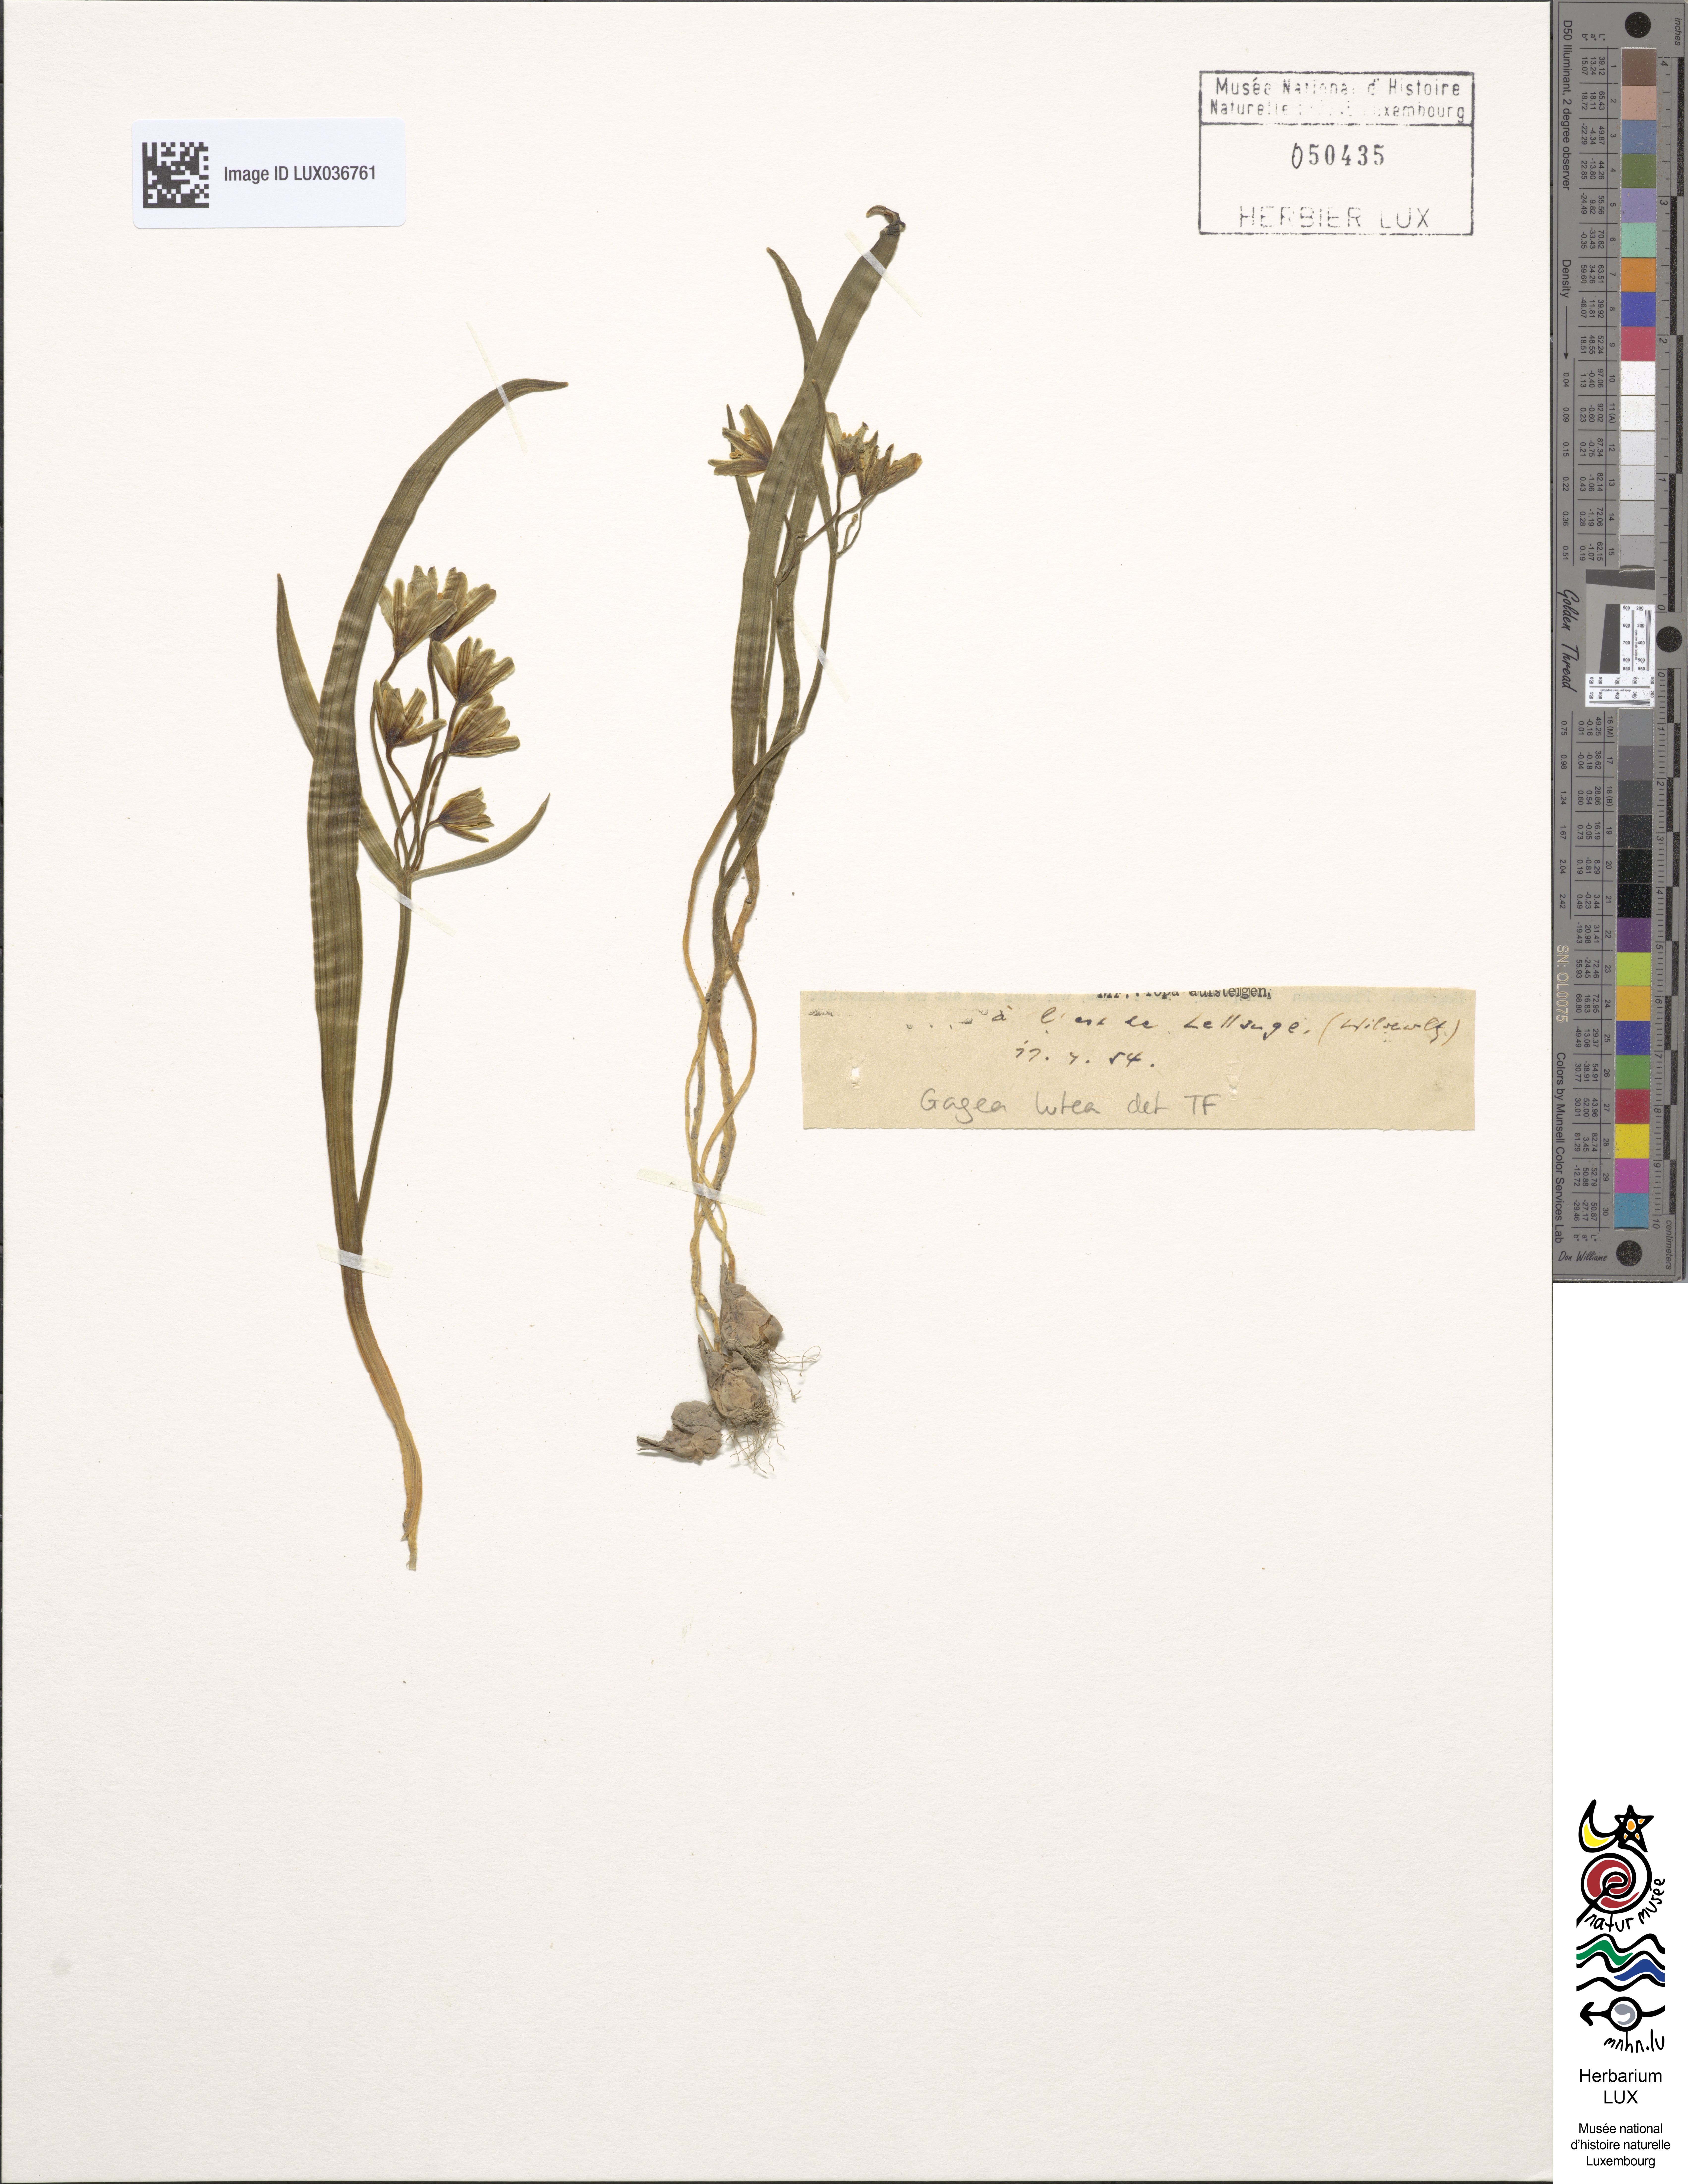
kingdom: Plantae
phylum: Tracheophyta
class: Liliopsida
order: Liliales
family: Liliaceae
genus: Gagea
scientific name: Gagea lutea
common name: Yellow star-of-bethlehem
